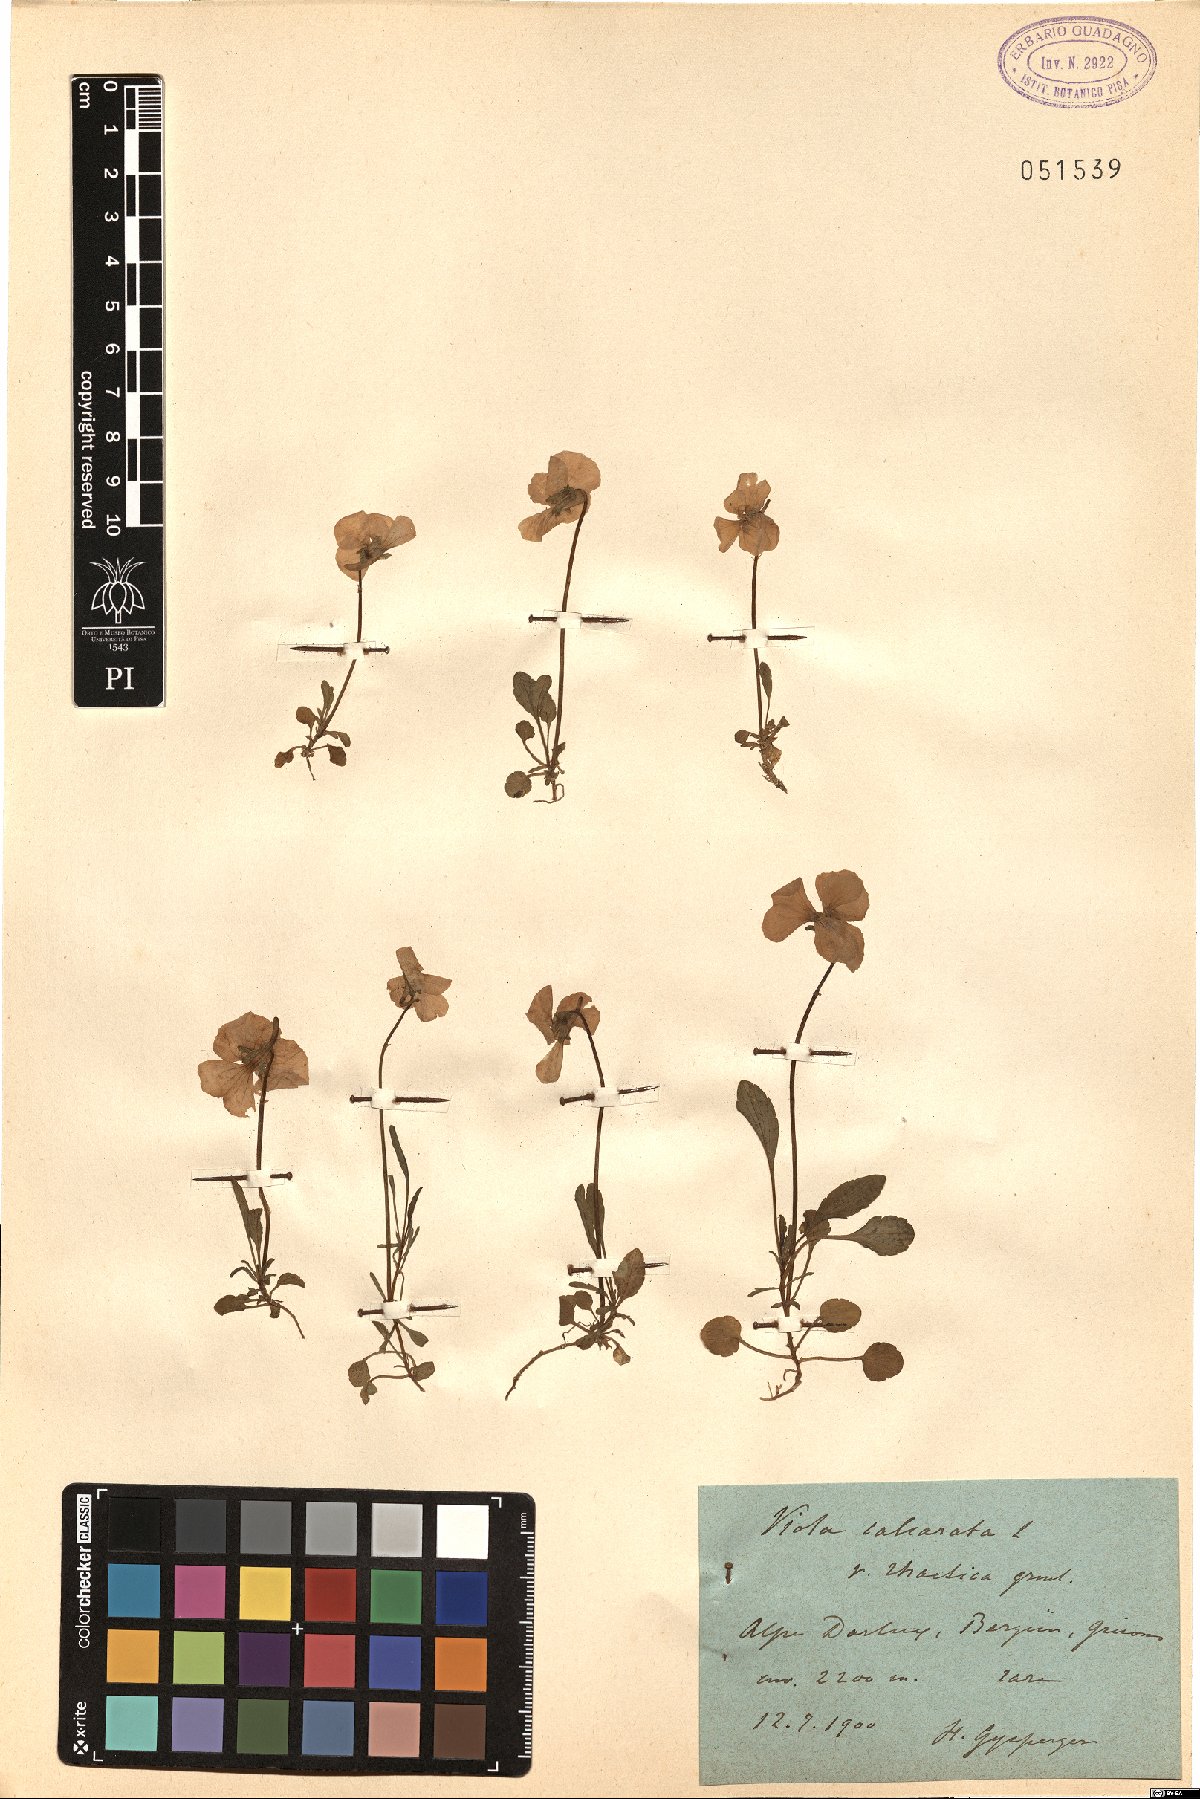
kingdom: Plantae
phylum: Tracheophyta
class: Magnoliopsida
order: Malpighiales
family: Violaceae
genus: Viola
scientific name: Viola calcarata
